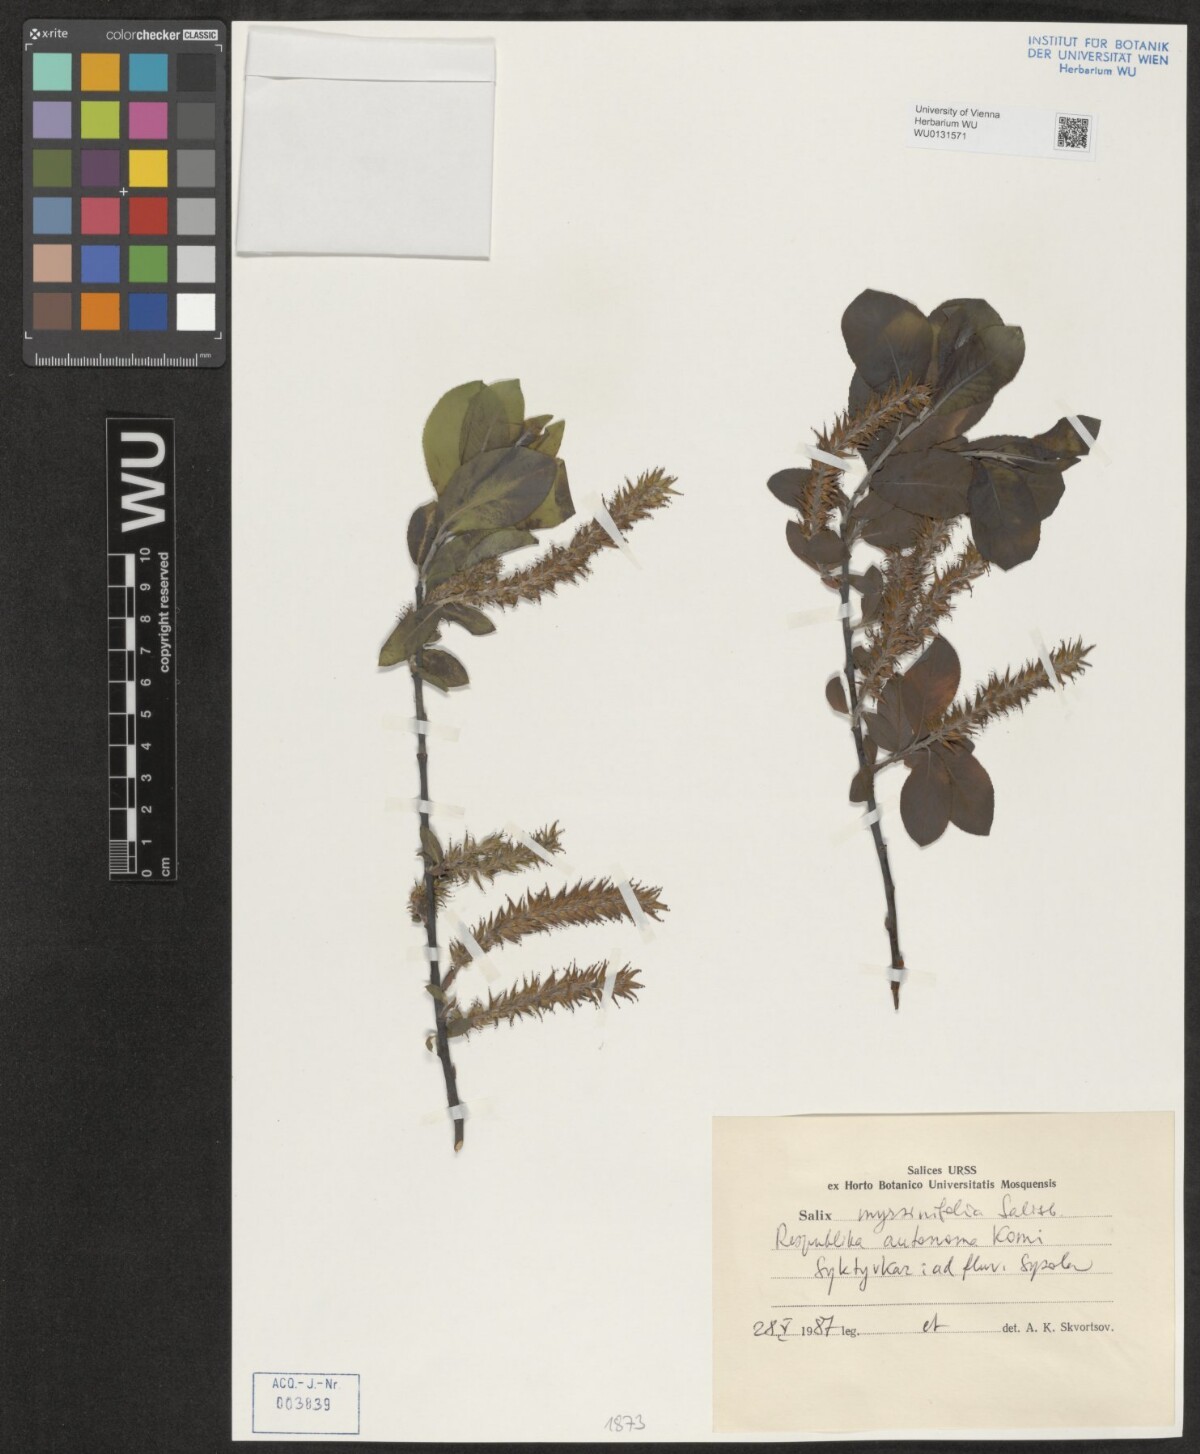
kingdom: Plantae
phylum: Tracheophyta
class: Magnoliopsida
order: Malpighiales
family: Salicaceae
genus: Salix
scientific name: Salix myrsinifolia
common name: Dark-leaved willow
